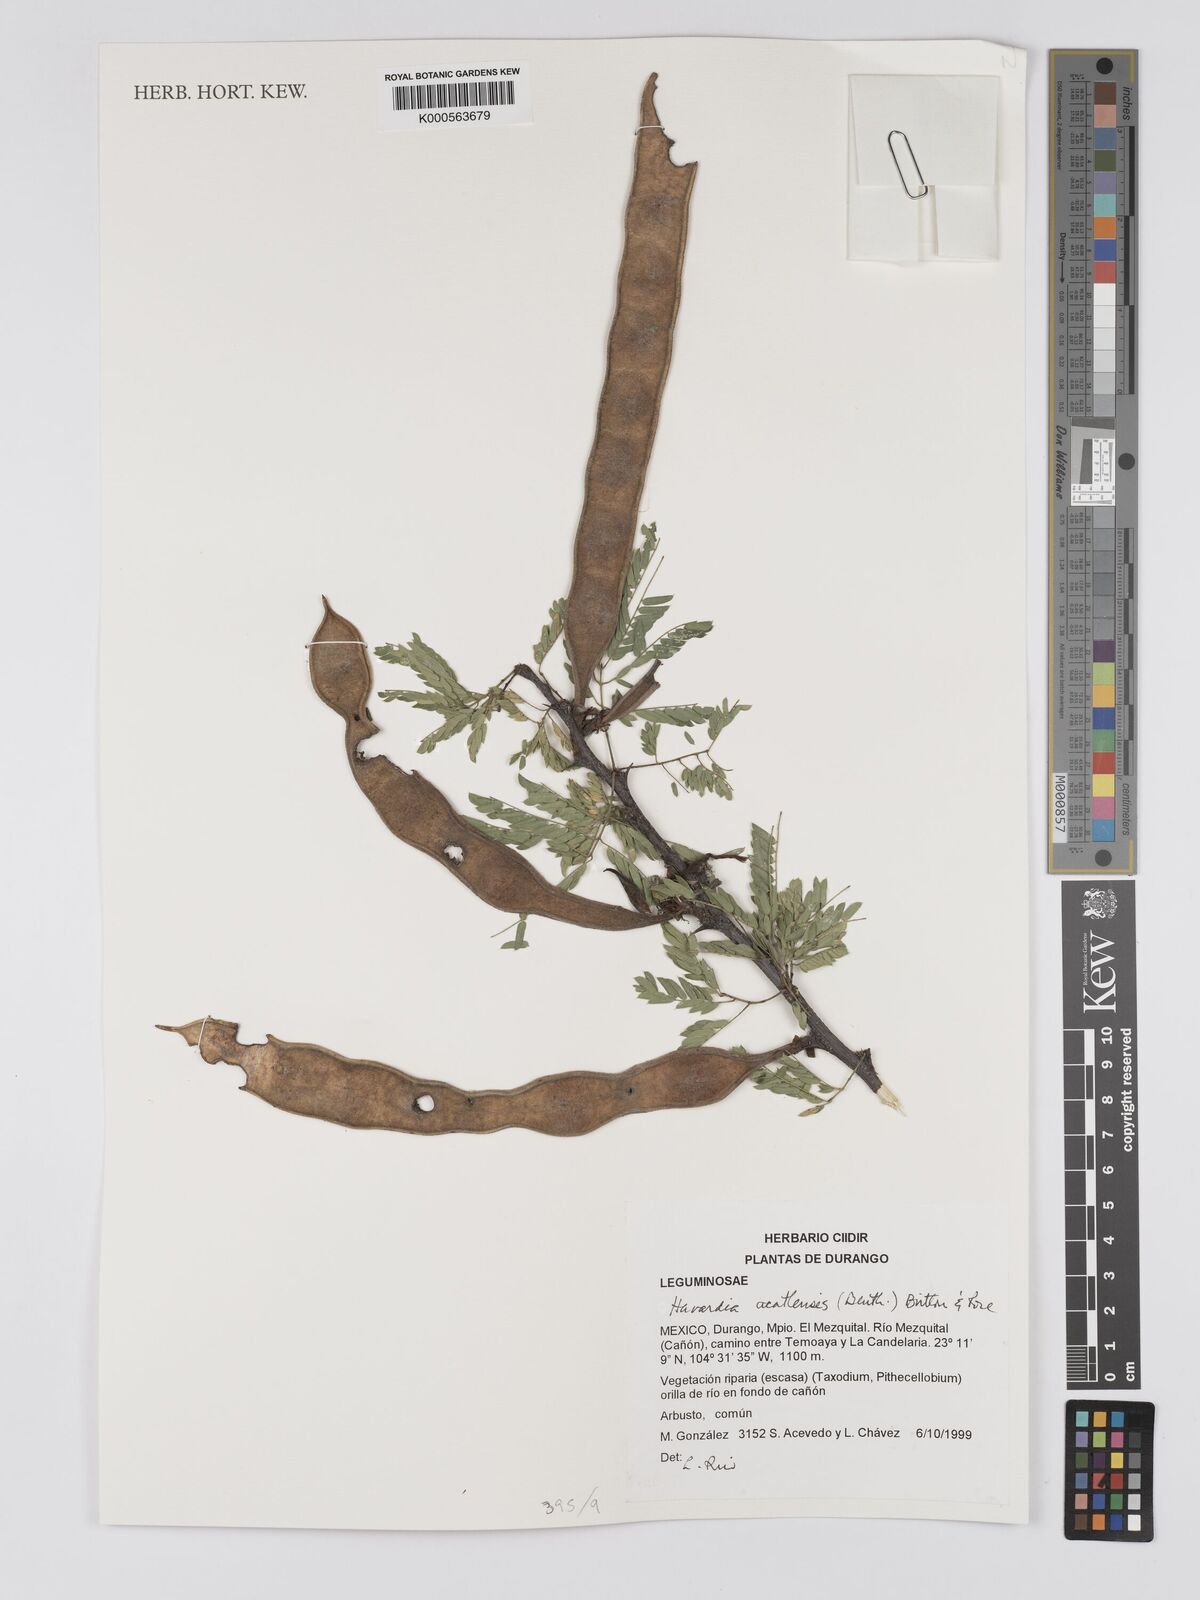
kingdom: Plantae
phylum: Tracheophyta
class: Magnoliopsida
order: Fabales
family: Fabaceae
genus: Havardia
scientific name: Havardia acatlensis
